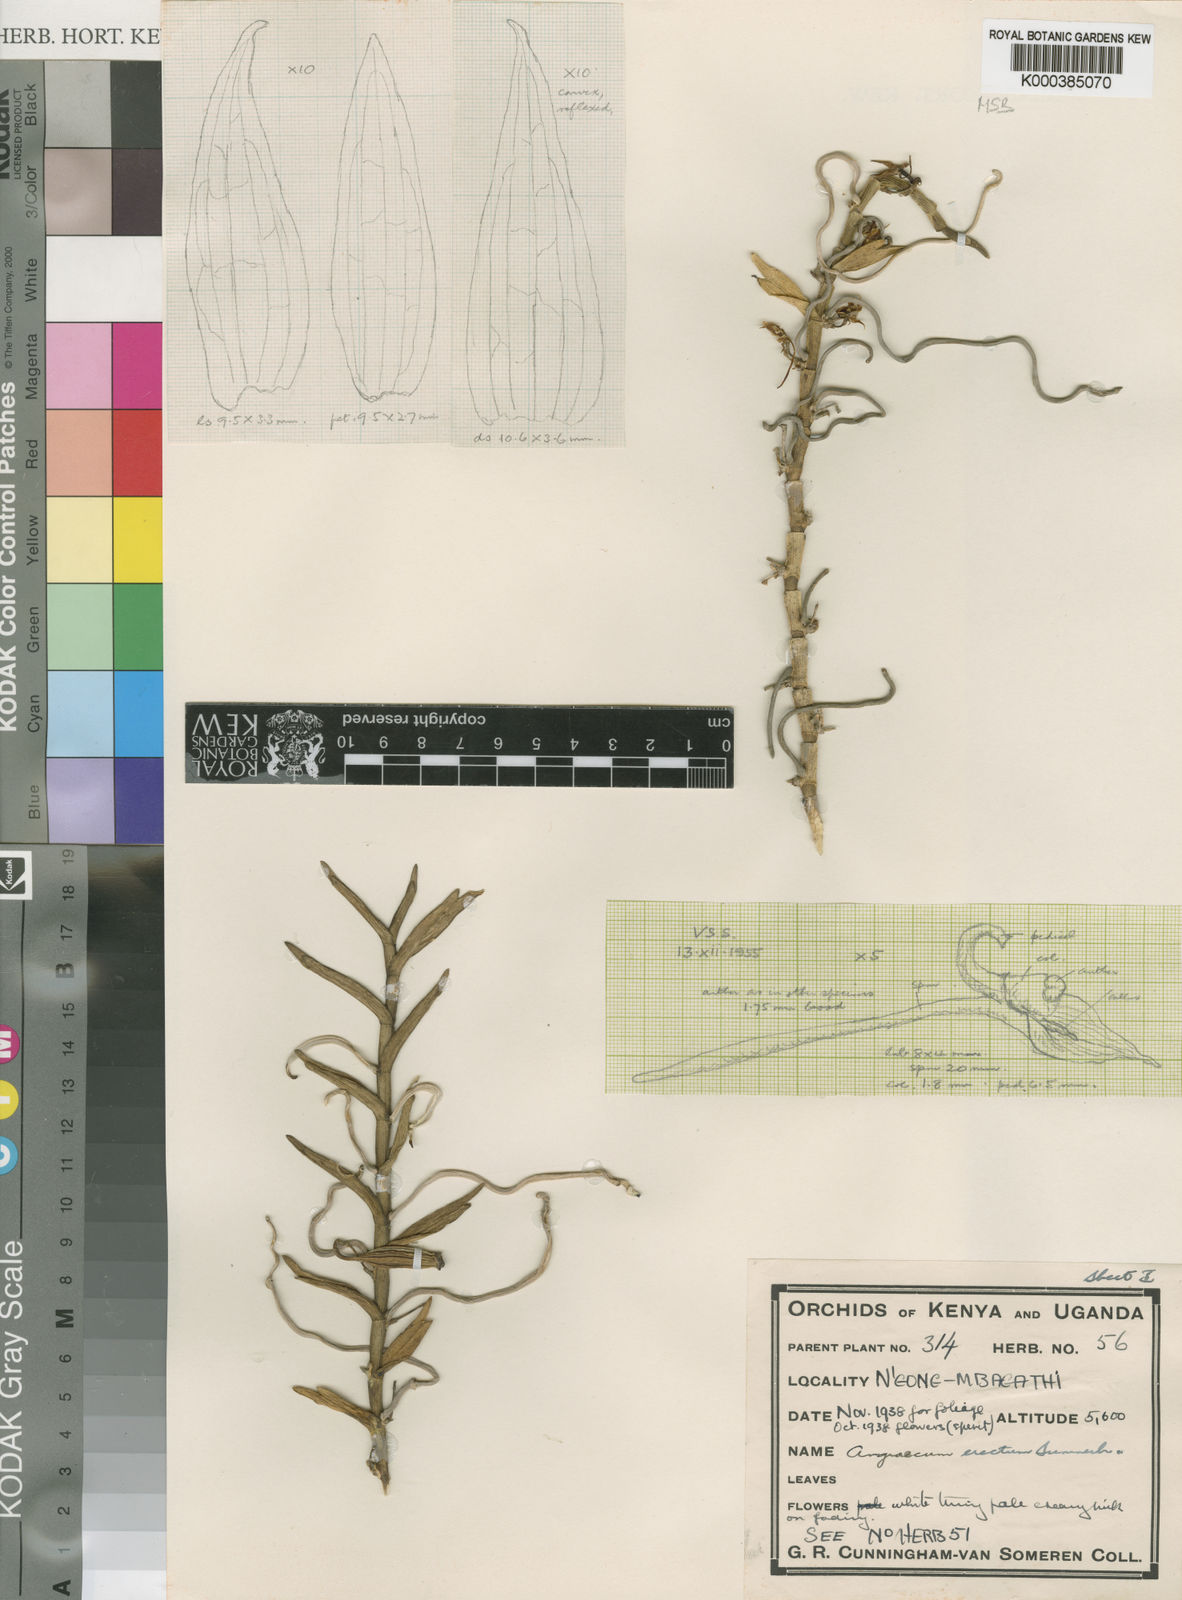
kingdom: Plantae
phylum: Tracheophyta
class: Liliopsida
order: Asparagales
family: Orchidaceae
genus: Angraecum
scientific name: Angraecum erectum
